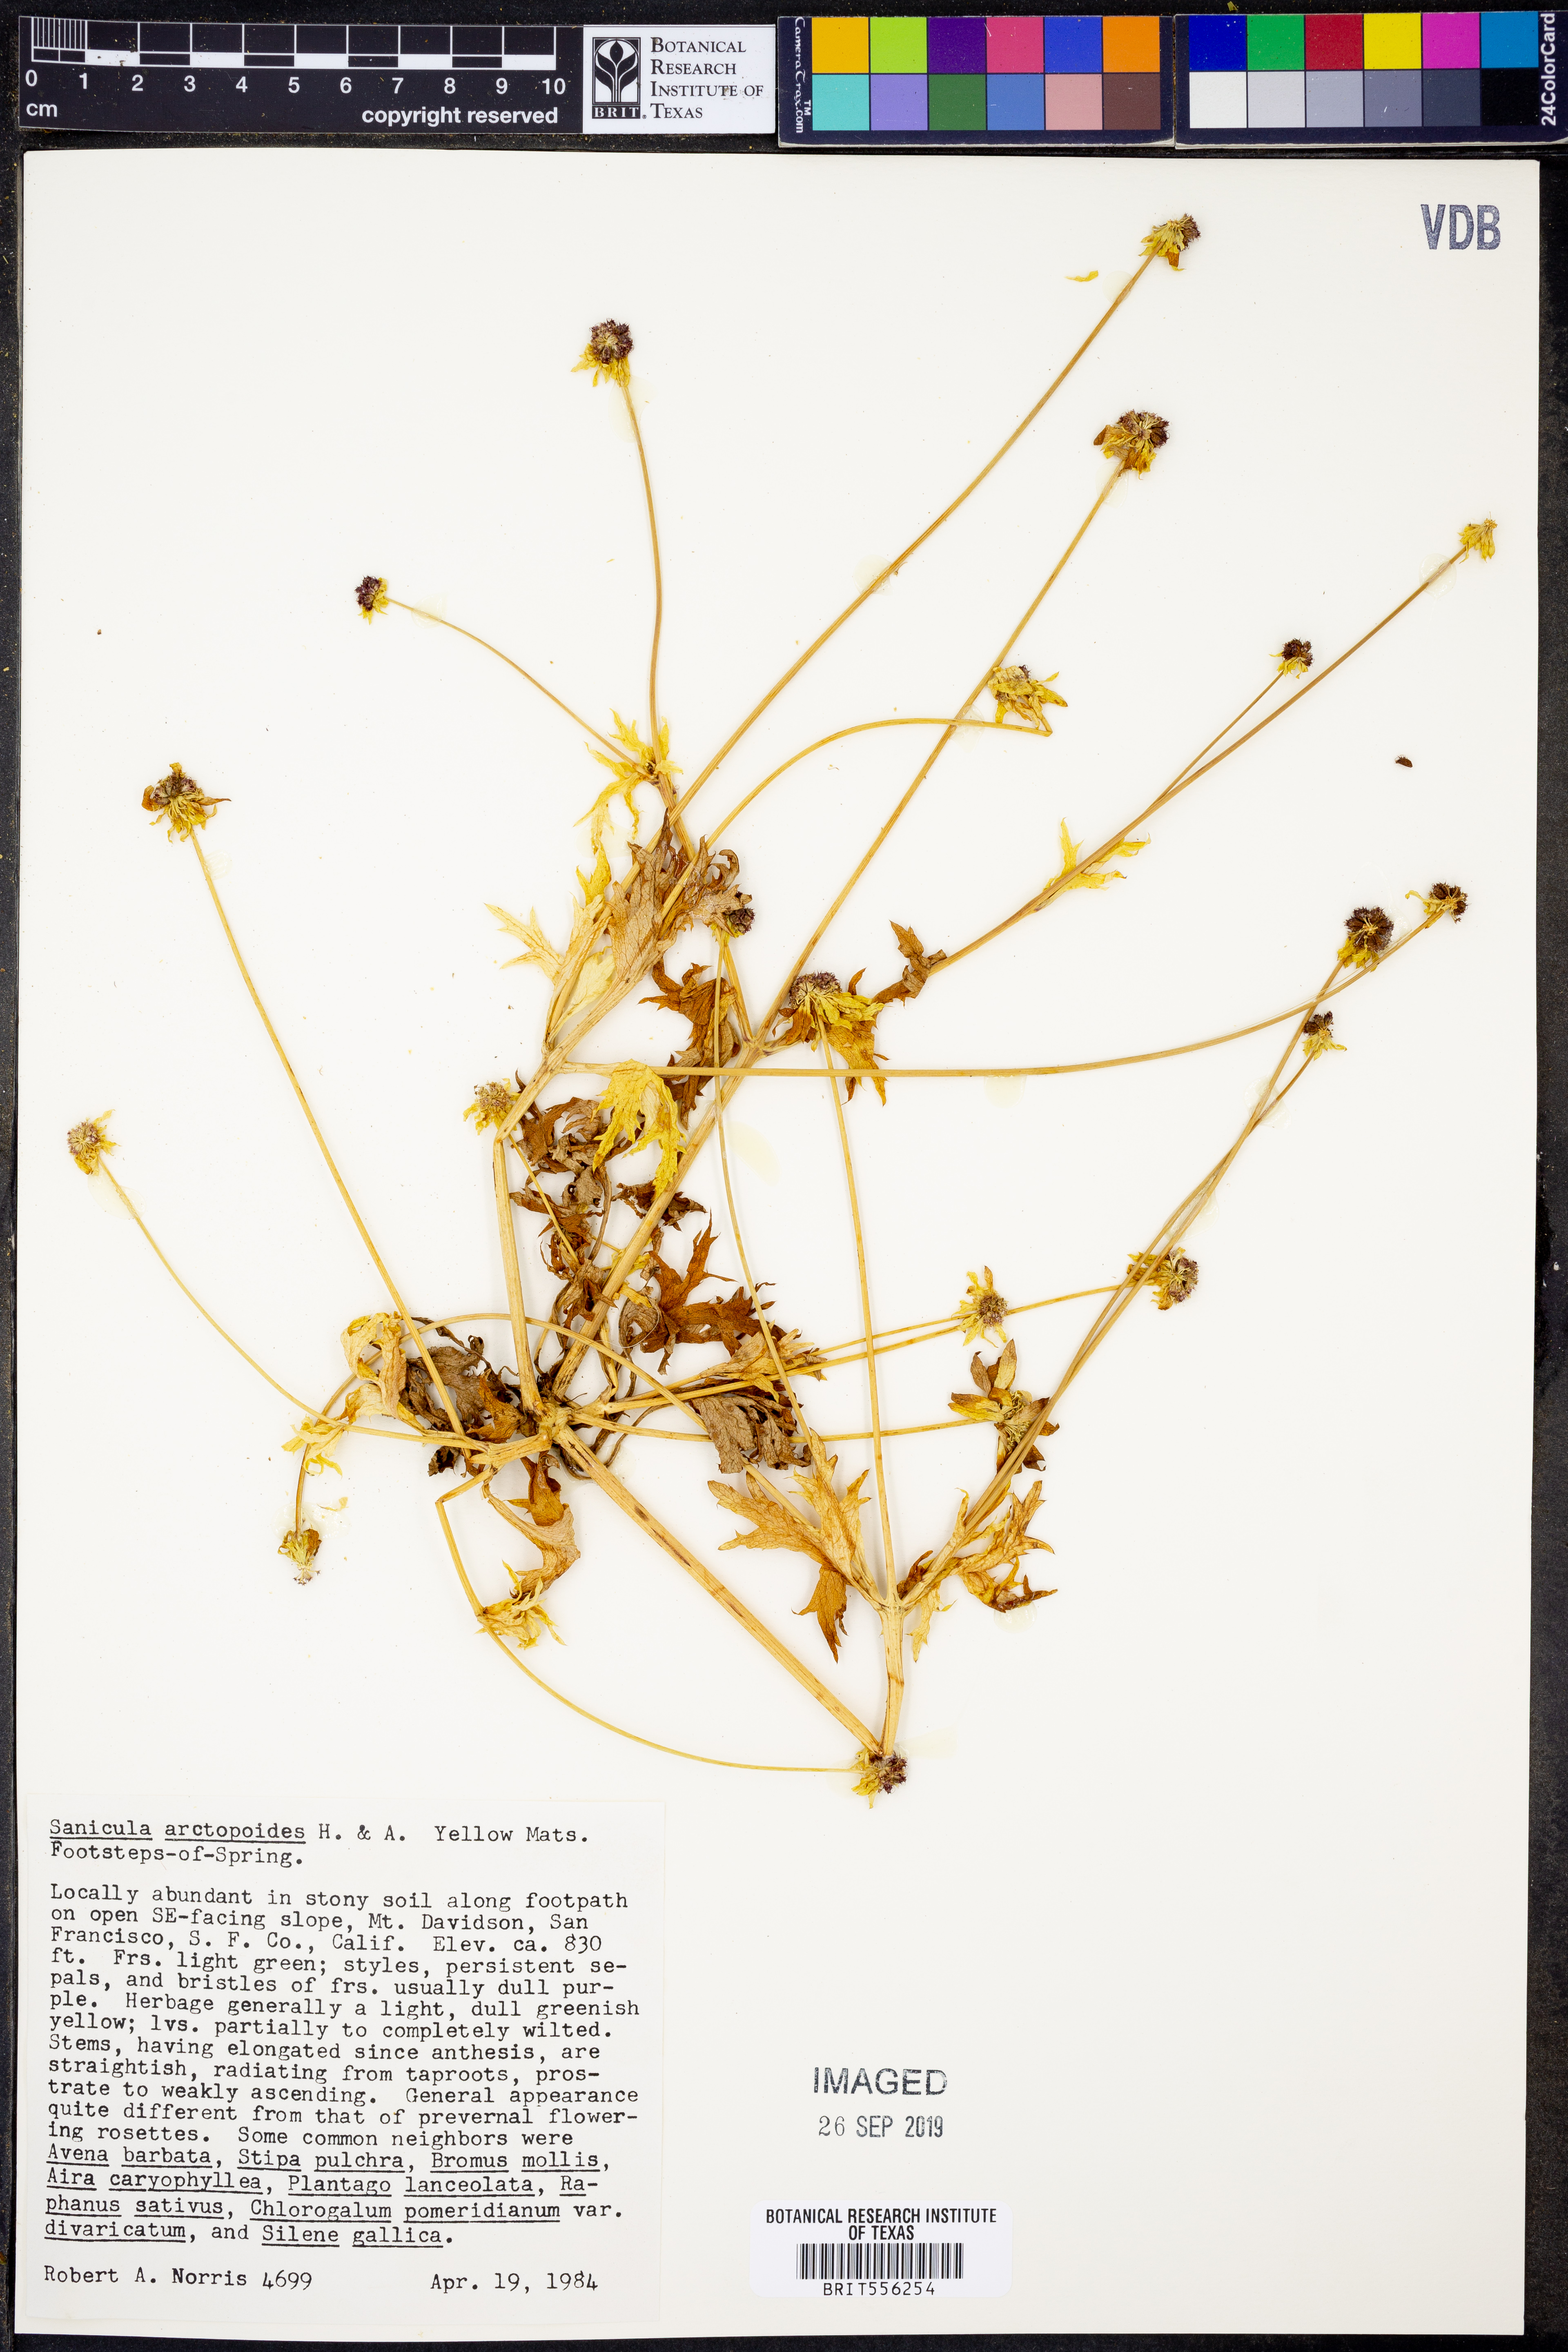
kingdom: Plantae
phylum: Tracheophyta
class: Magnoliopsida
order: Apiales
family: Apiaceae
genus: Sanicula
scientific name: Sanicula arctopoides
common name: Footsteps-of-spring
